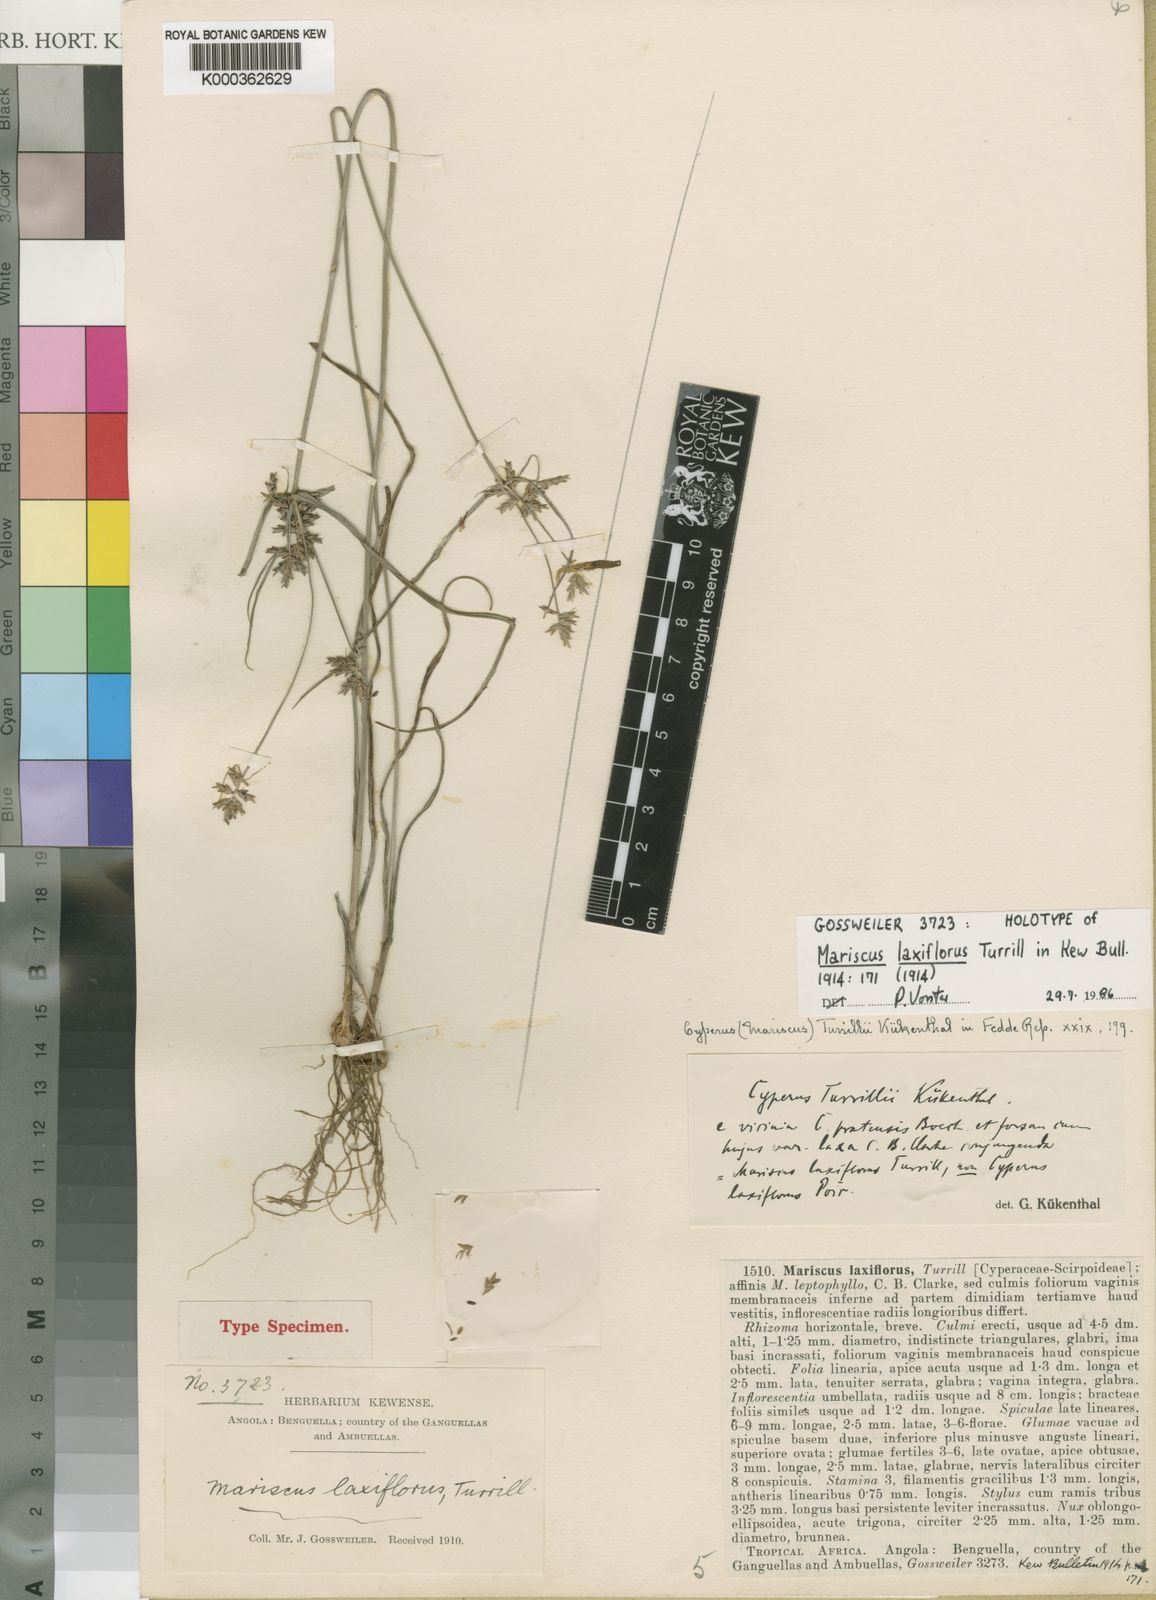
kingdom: Plantae
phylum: Tracheophyta
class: Liliopsida
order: Poales
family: Cyperaceae
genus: Cyperus
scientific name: Cyperus
